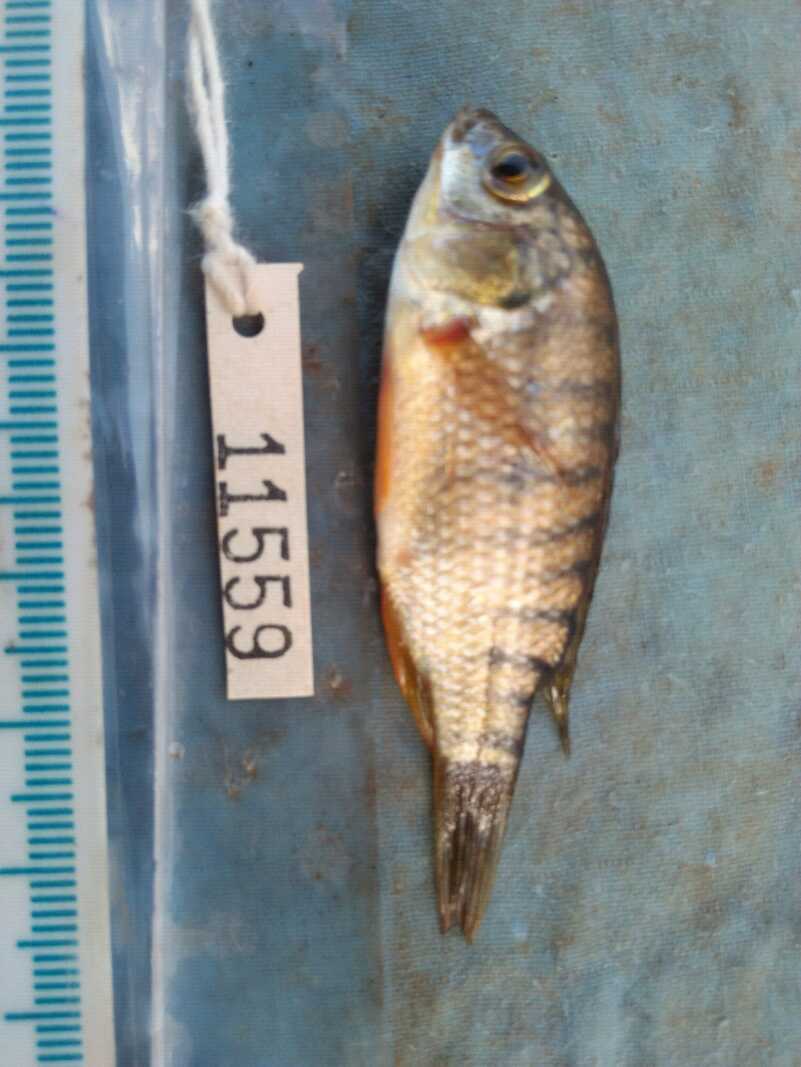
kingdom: Animalia
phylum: Chordata
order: Perciformes
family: Cichlidae
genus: Oreochromis
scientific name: Oreochromis spilurus
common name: Sabaki tilapia
